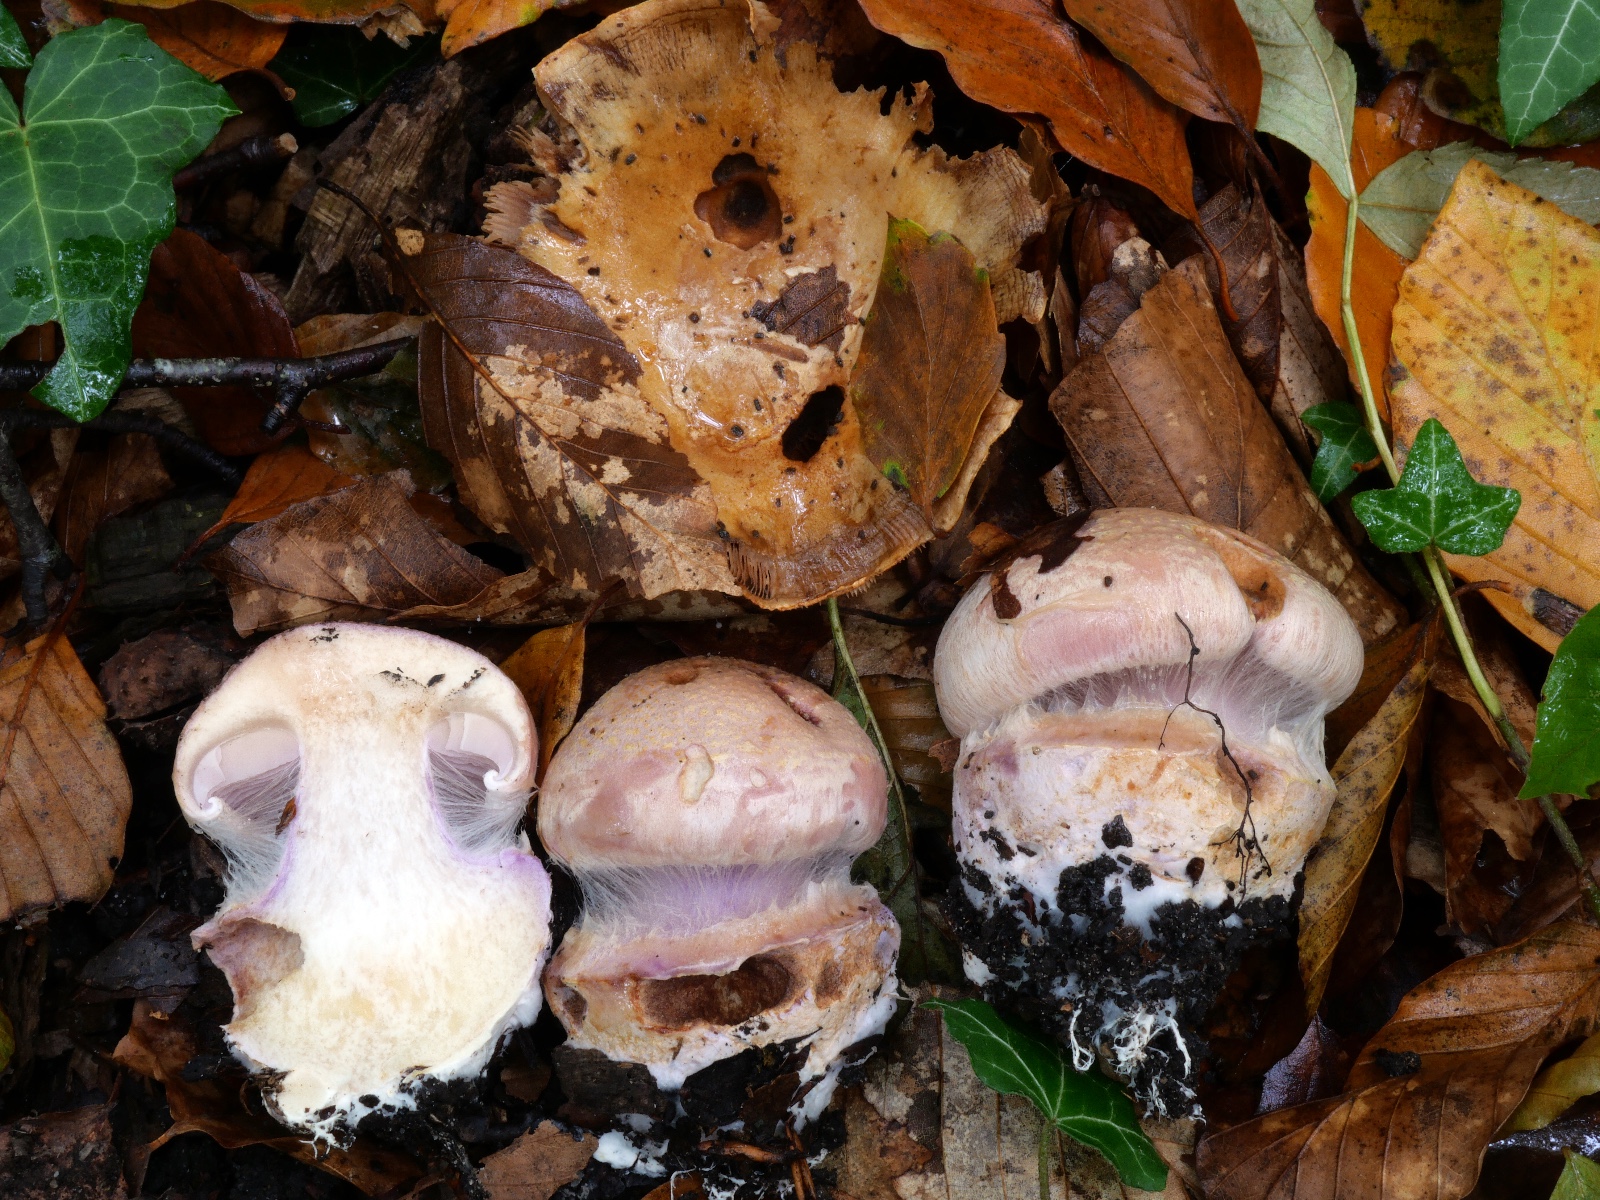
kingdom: Fungi
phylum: Basidiomycota
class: Agaricomycetes
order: Agaricales
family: Cortinariaceae
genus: Calonarius
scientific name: Calonarius suaveolens
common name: sødtduftende slørhat
